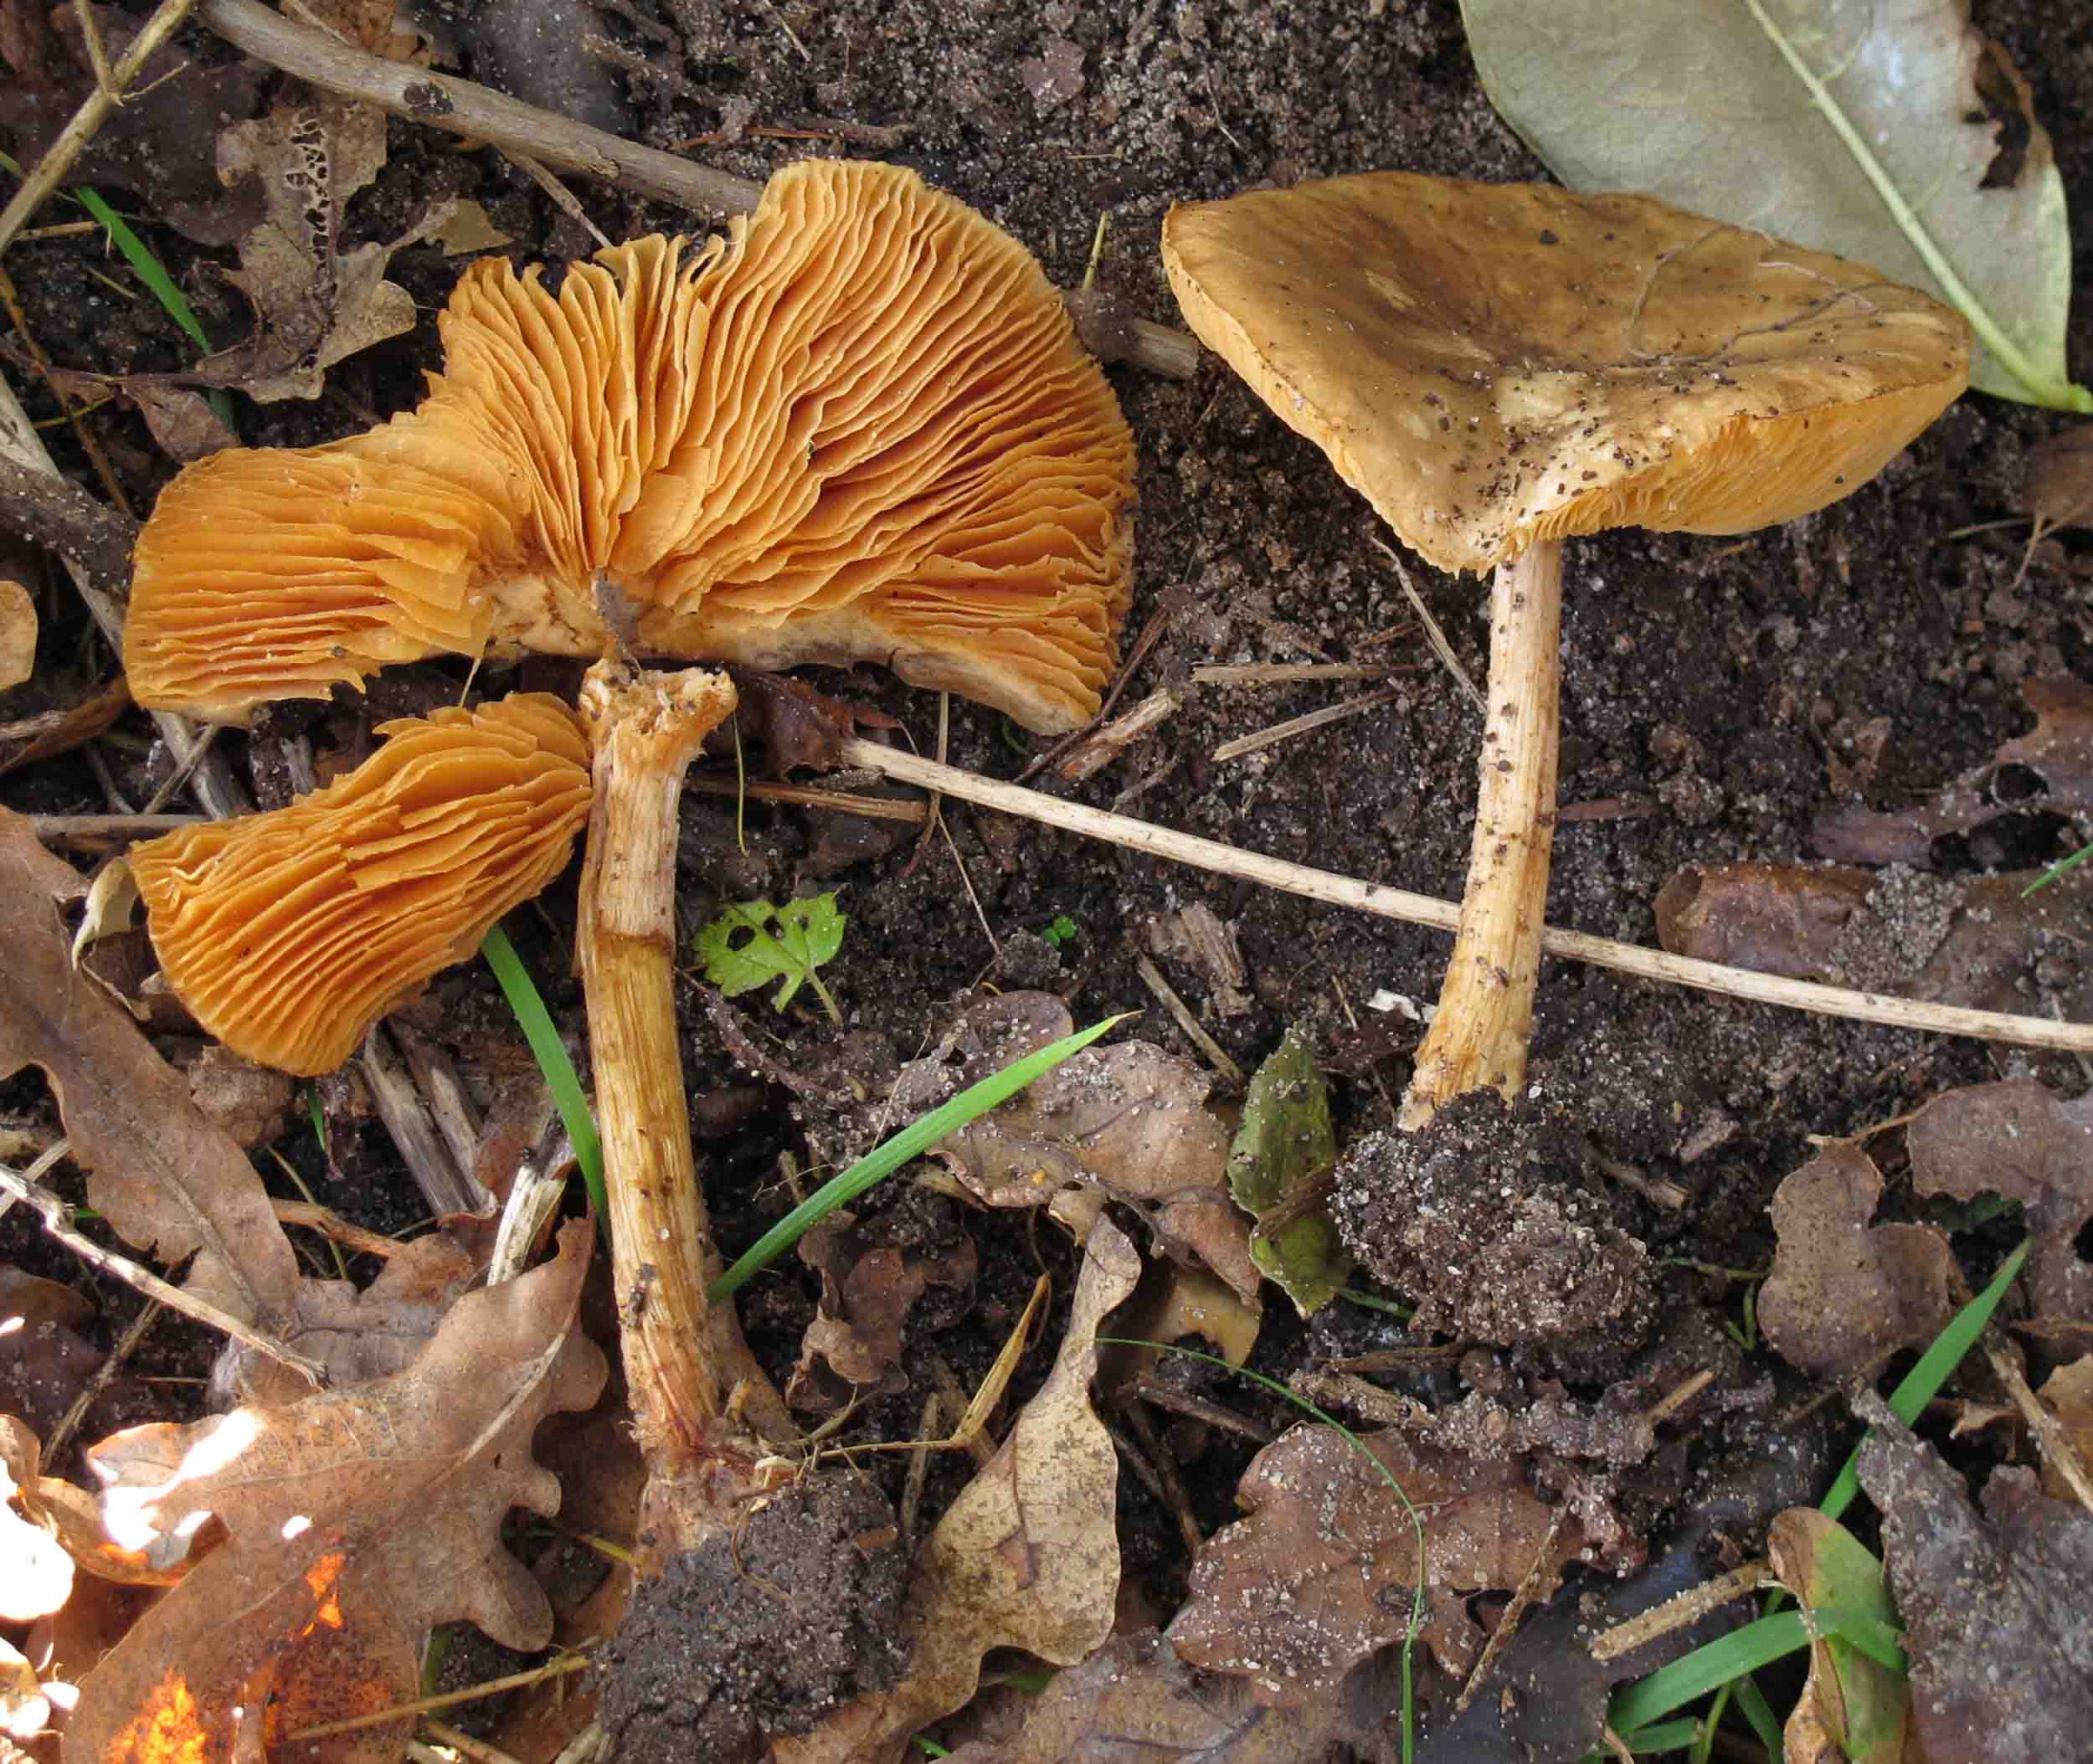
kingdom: Fungi
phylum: Basidiomycota
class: Agaricomycetes
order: Agaricales
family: Tricholomataceae
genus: Melanoleuca
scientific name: Melanoleuca cognata
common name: gyldengrå munkehat
